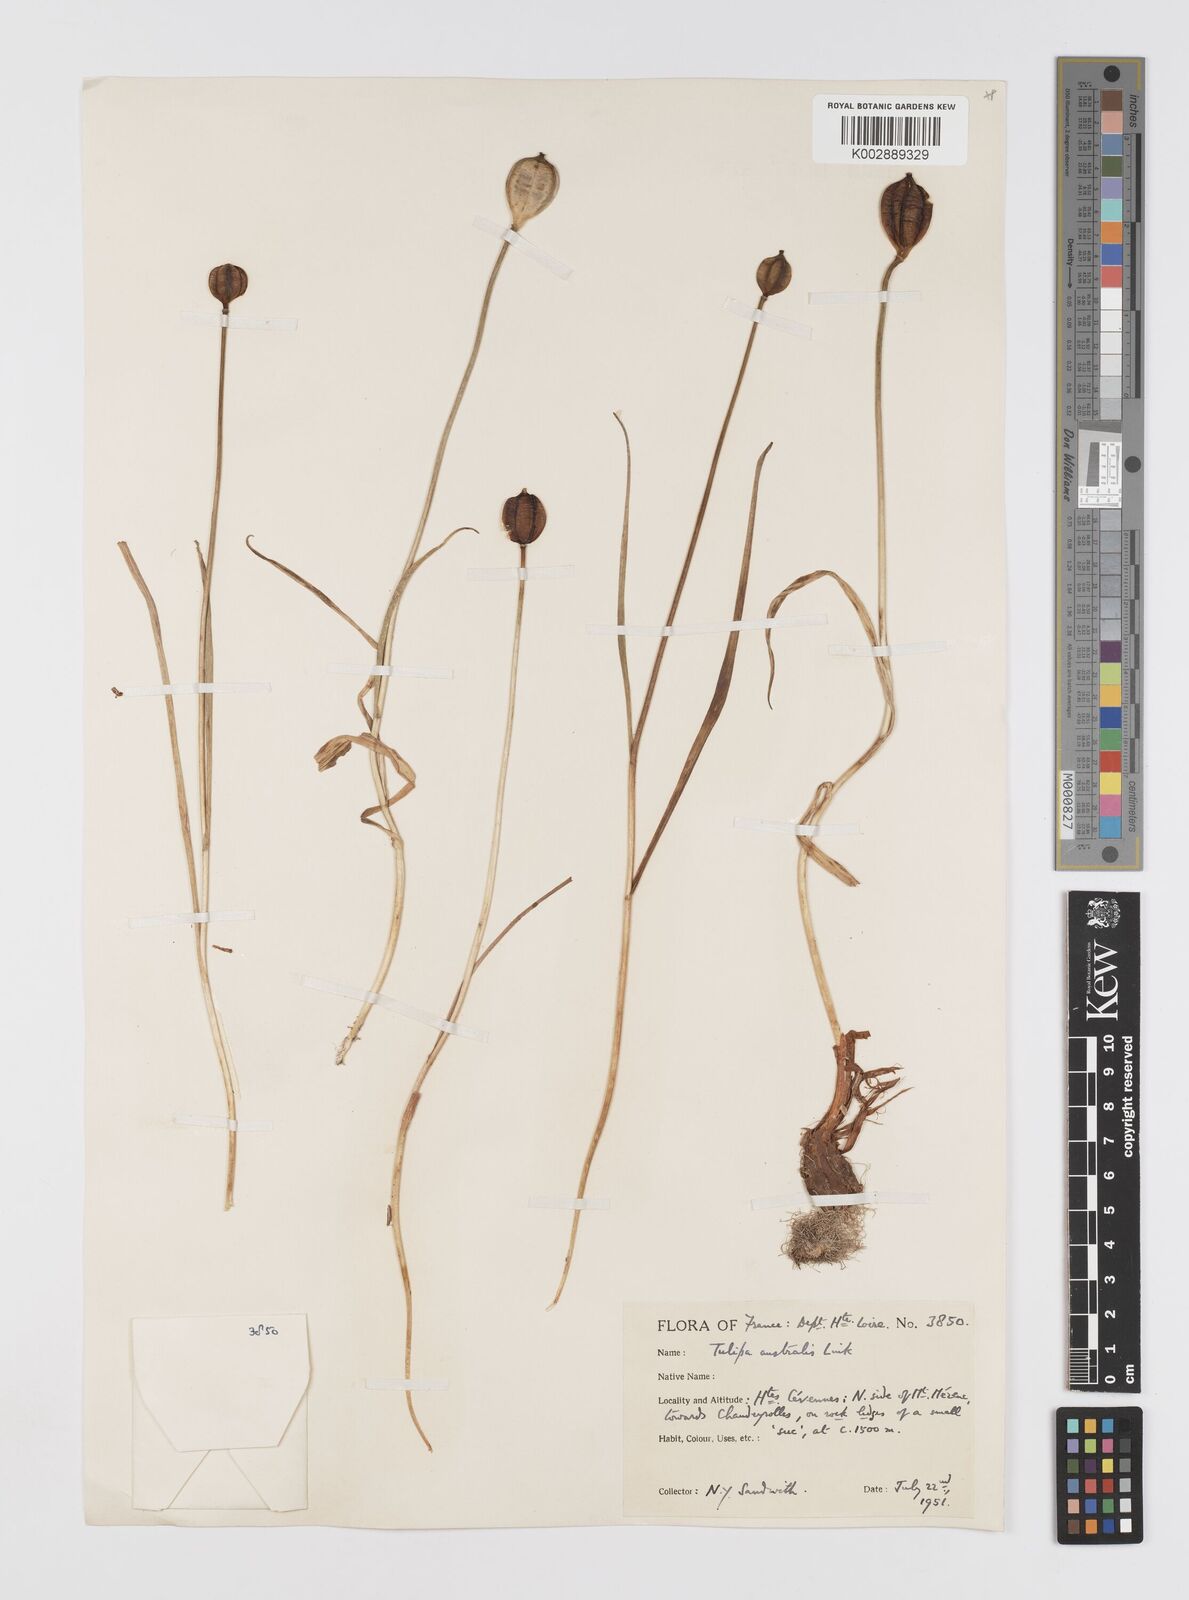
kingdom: Plantae
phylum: Tracheophyta
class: Liliopsida
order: Liliales
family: Liliaceae
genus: Tulipa
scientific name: Tulipa sylvestris
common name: Wild tulip
